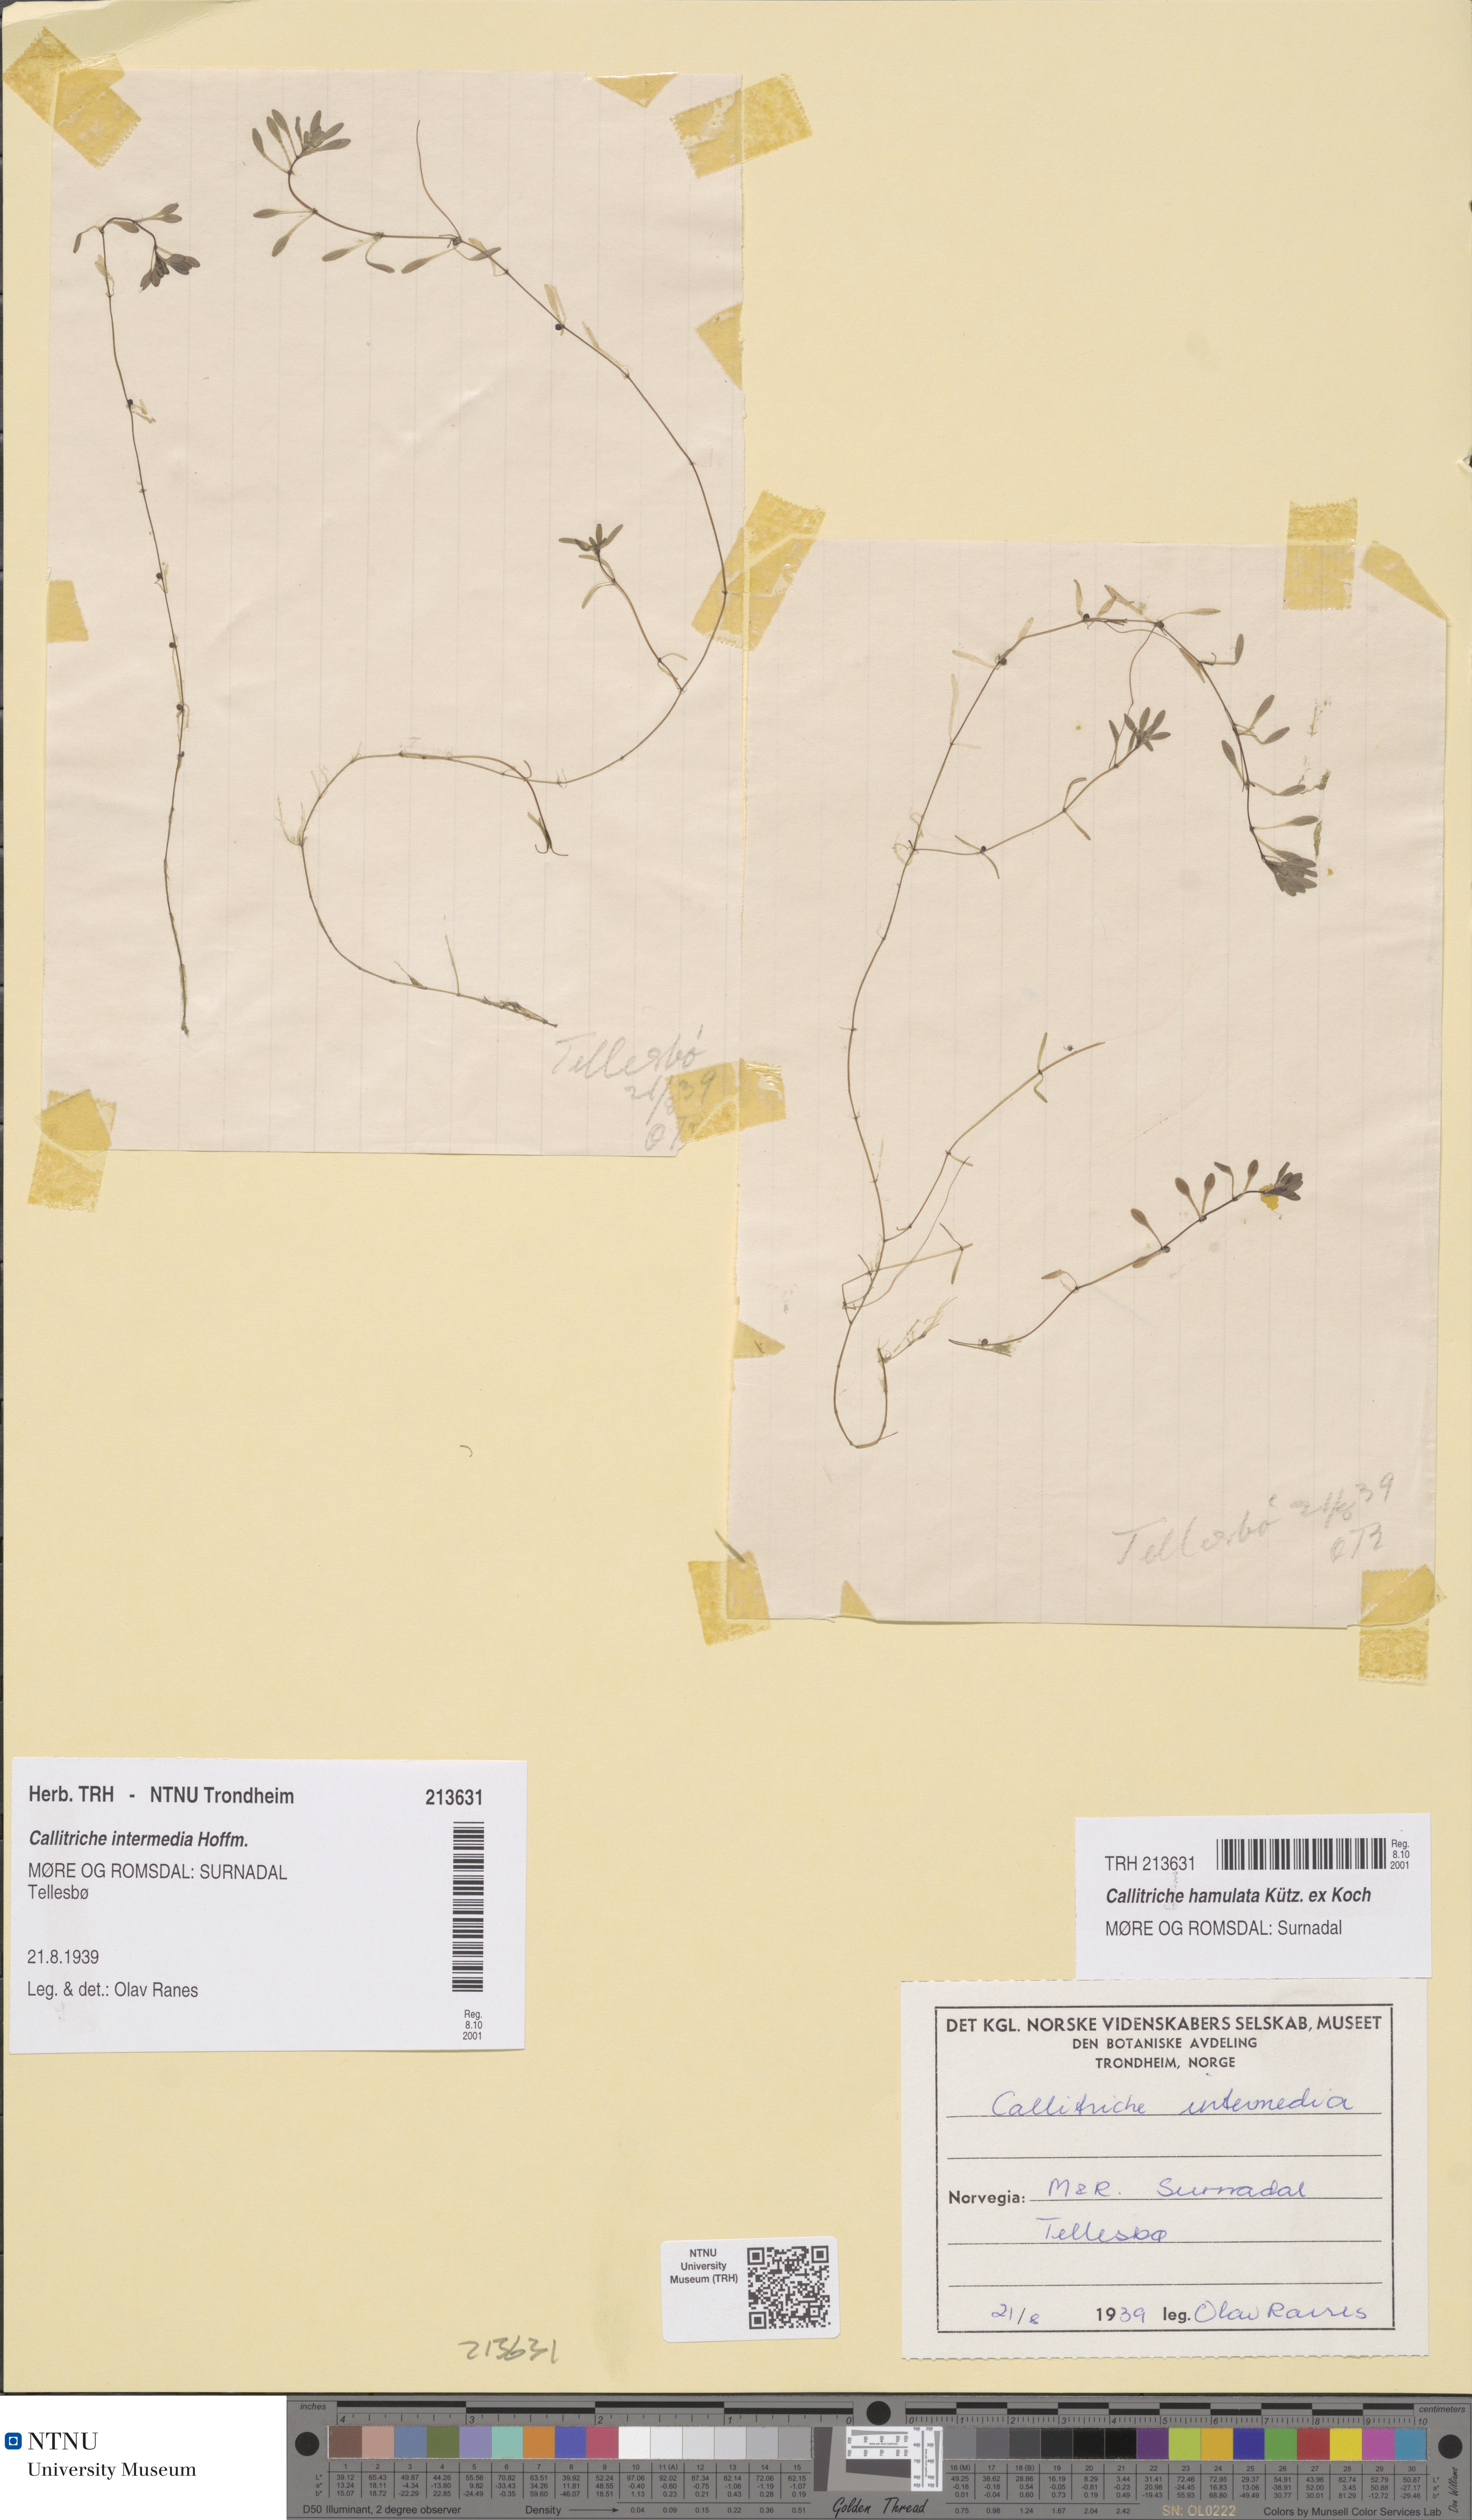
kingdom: Plantae
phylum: Tracheophyta
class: Magnoliopsida
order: Lamiales
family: Plantaginaceae
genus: Callitriche
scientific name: Callitriche hamulata
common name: Intermediate water-starwort
